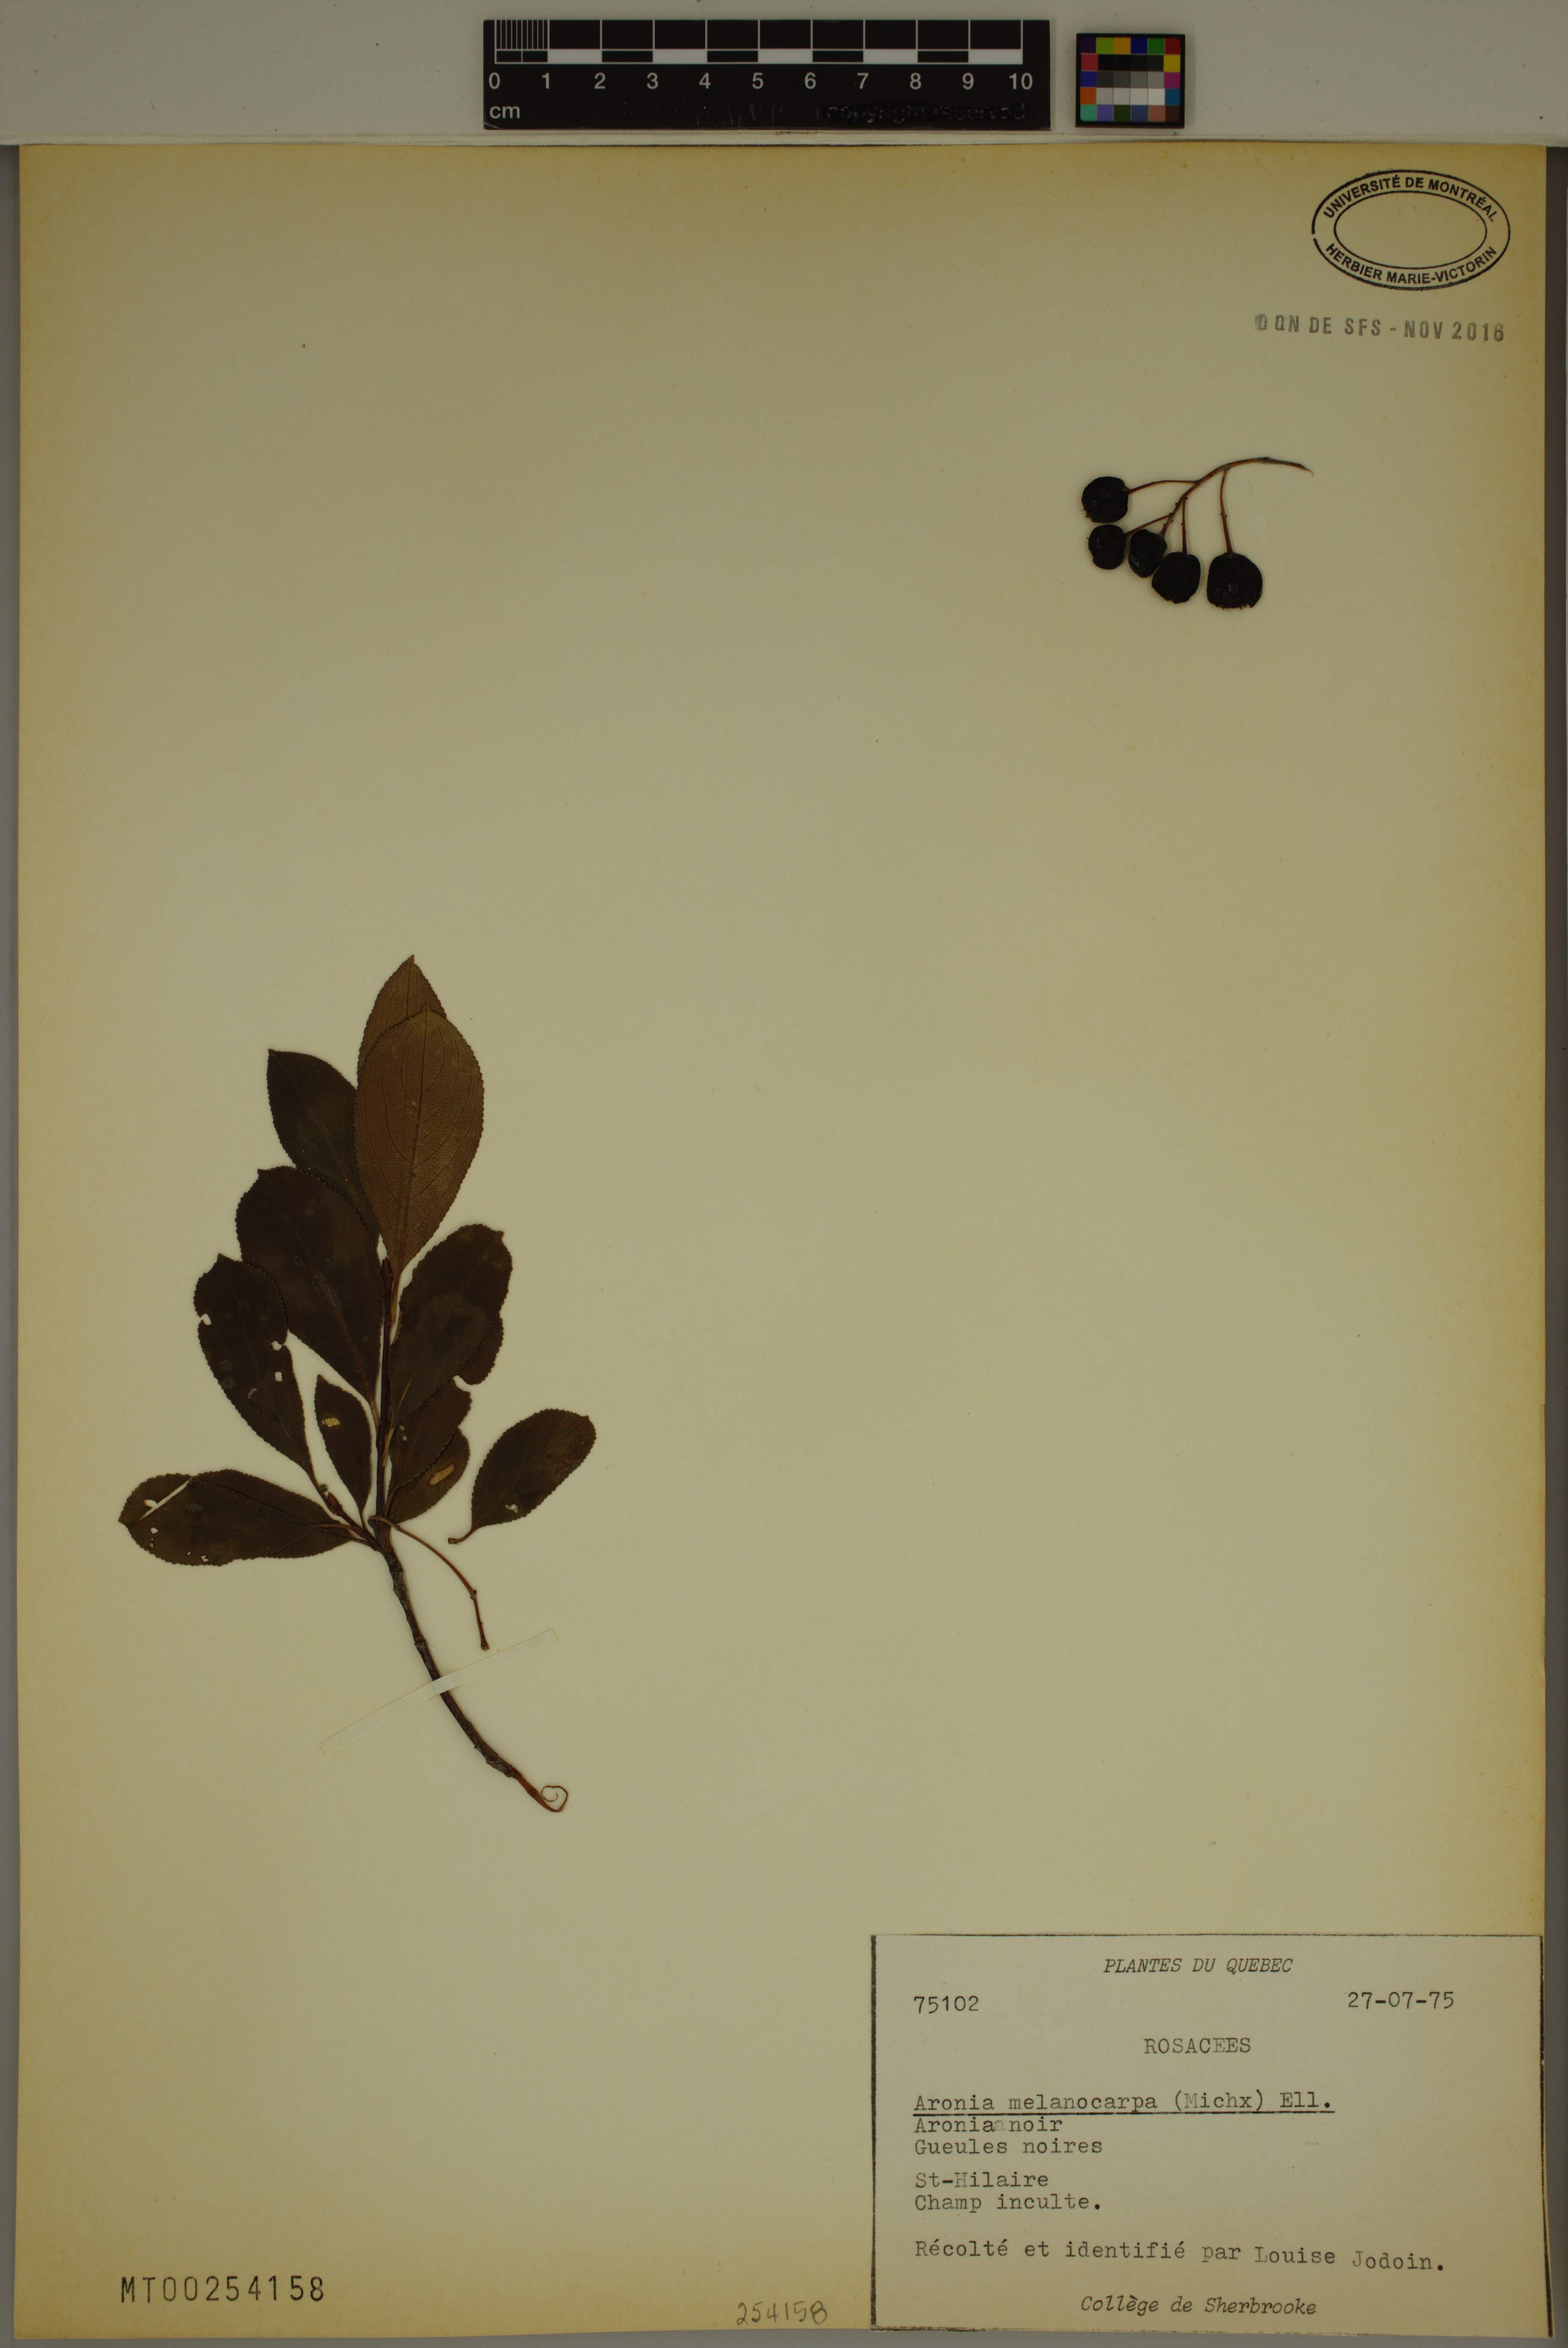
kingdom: Plantae
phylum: Tracheophyta
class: Magnoliopsida
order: Rosales
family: Rosaceae
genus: Aronia
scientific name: Aronia melanocarpa
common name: Black chokeberry
